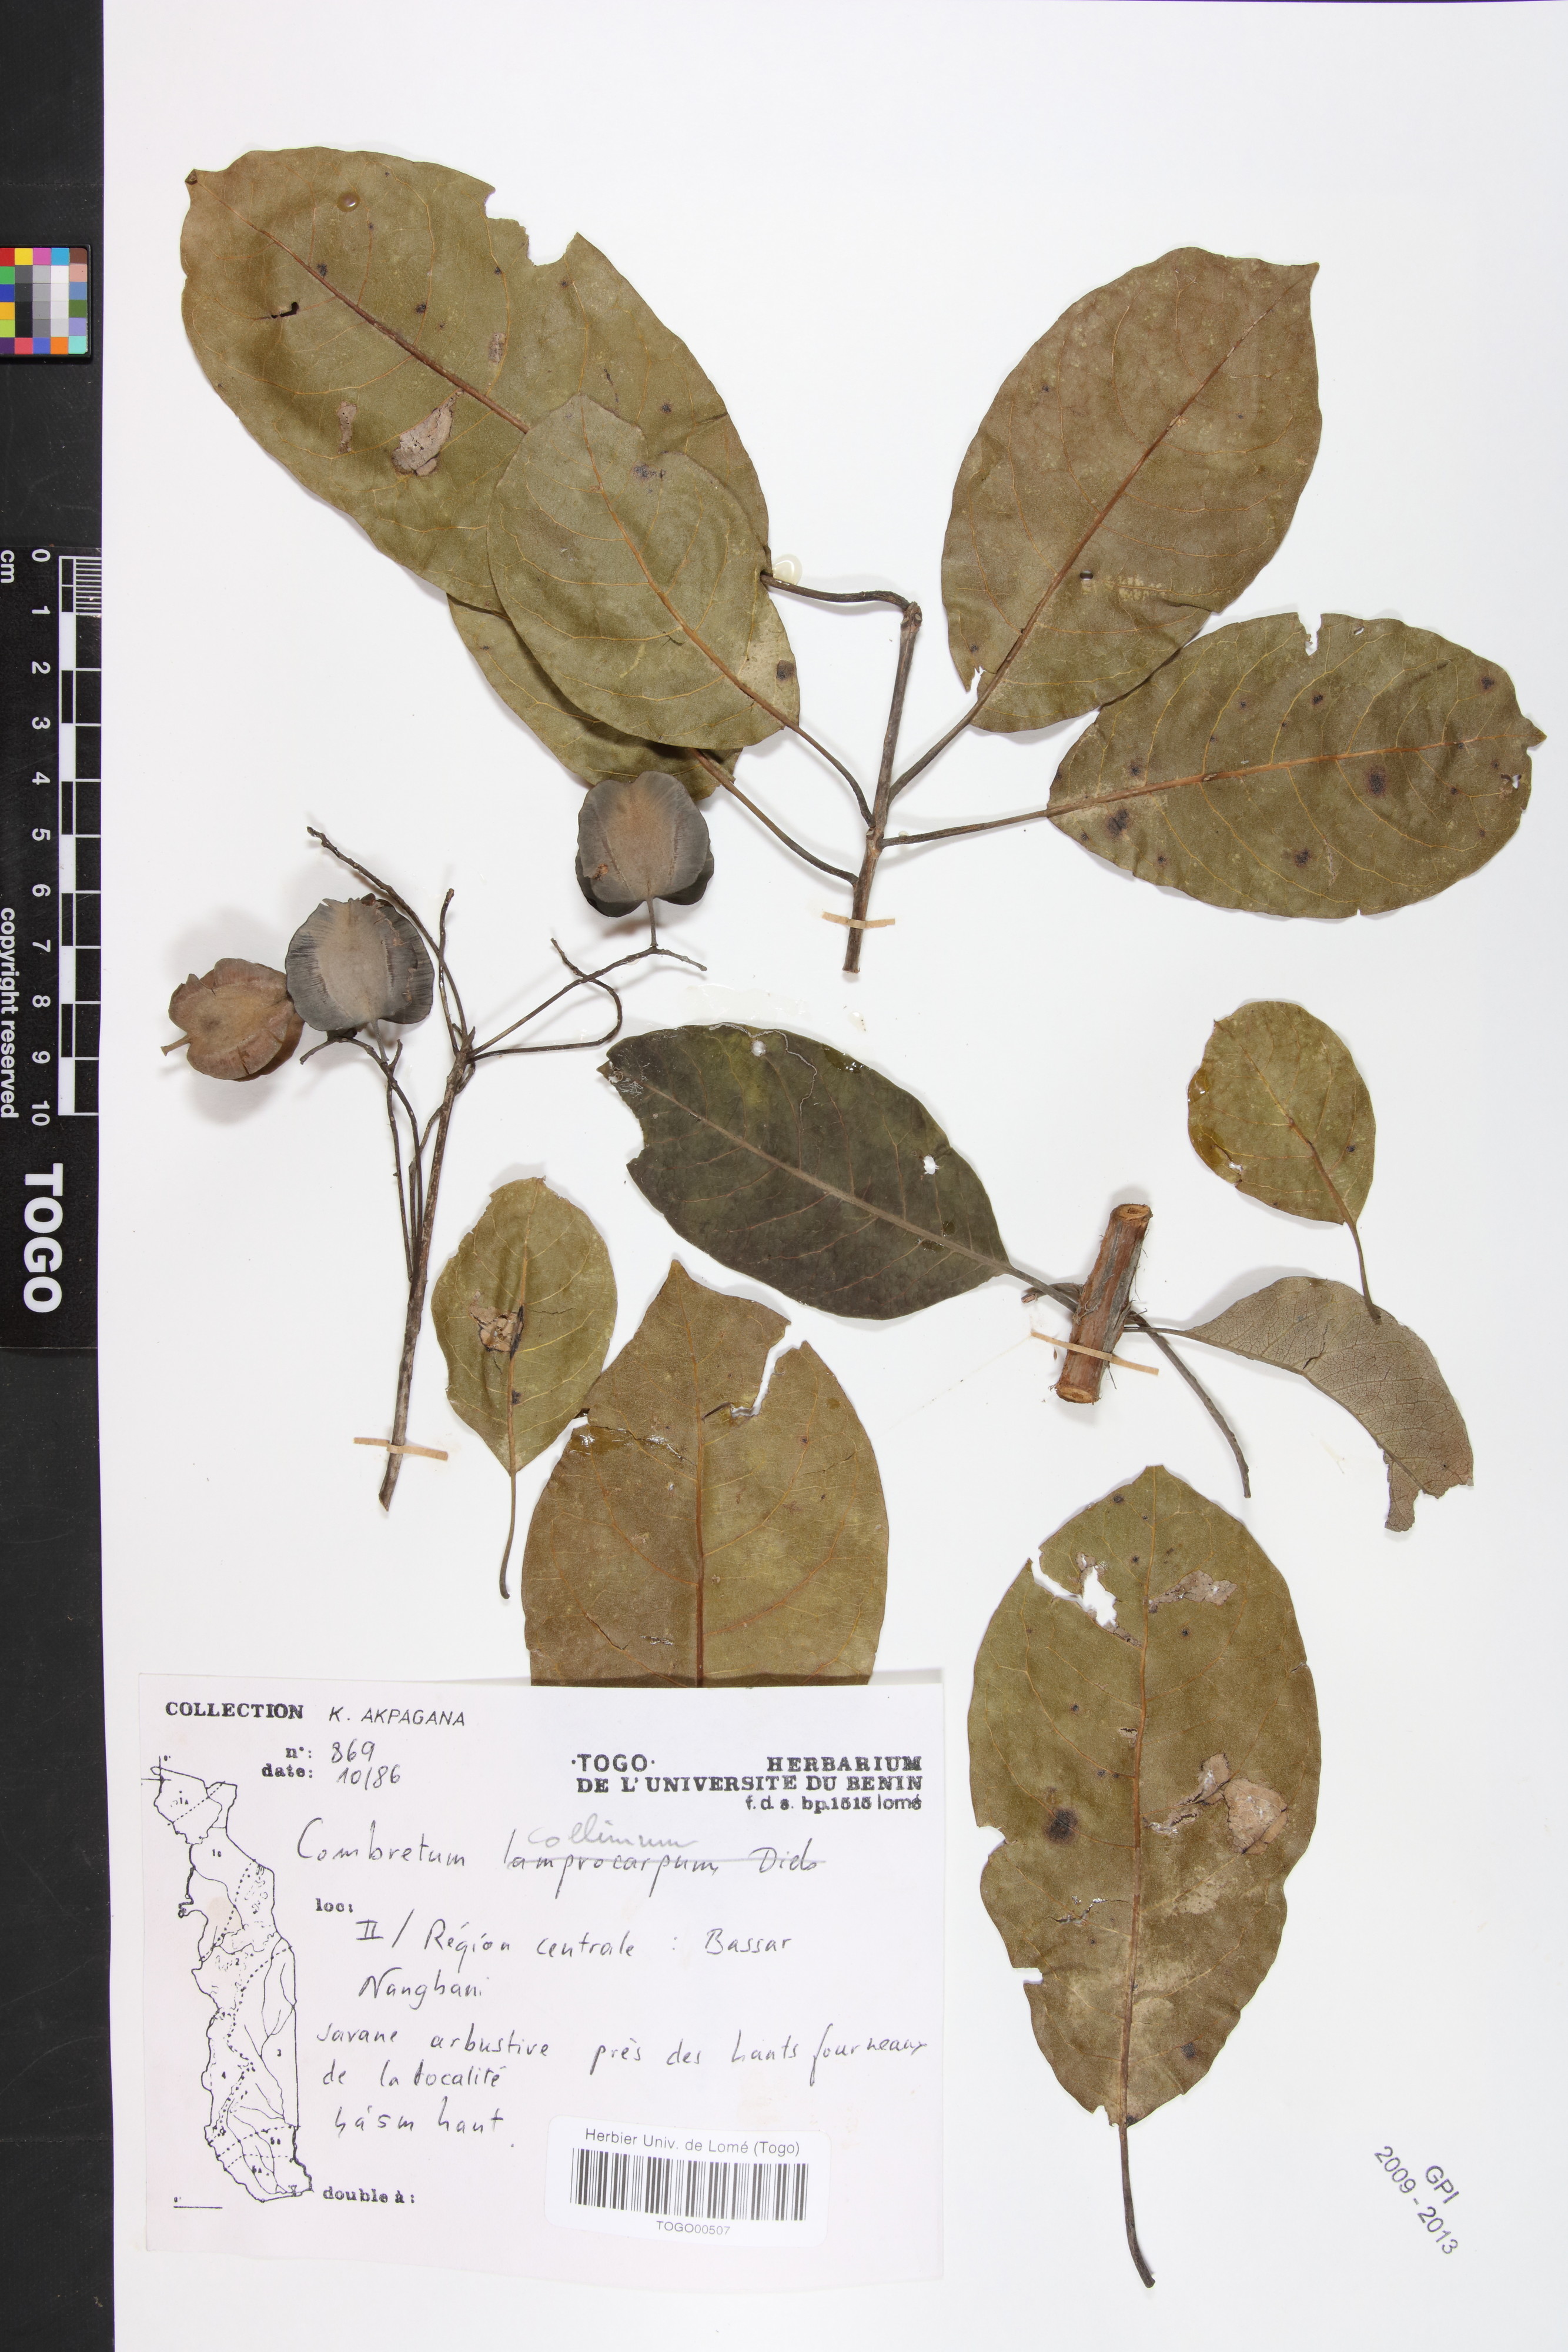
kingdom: Plantae
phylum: Tracheophyta
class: Magnoliopsida
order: Myrtales
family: Combretaceae
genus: Combretum
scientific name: Combretum collinum
